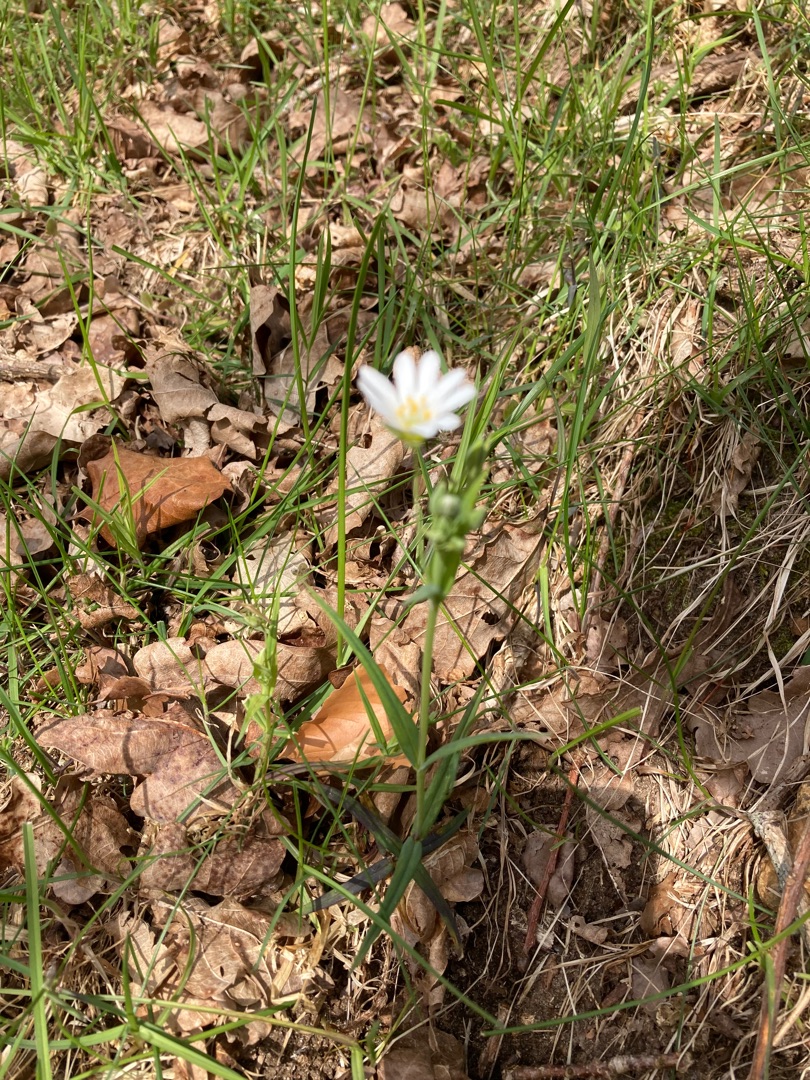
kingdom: Plantae
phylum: Tracheophyta
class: Magnoliopsida
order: Caryophyllales
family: Caryophyllaceae
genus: Rabelera
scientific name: Rabelera holostea
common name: Stor fladstjerne
